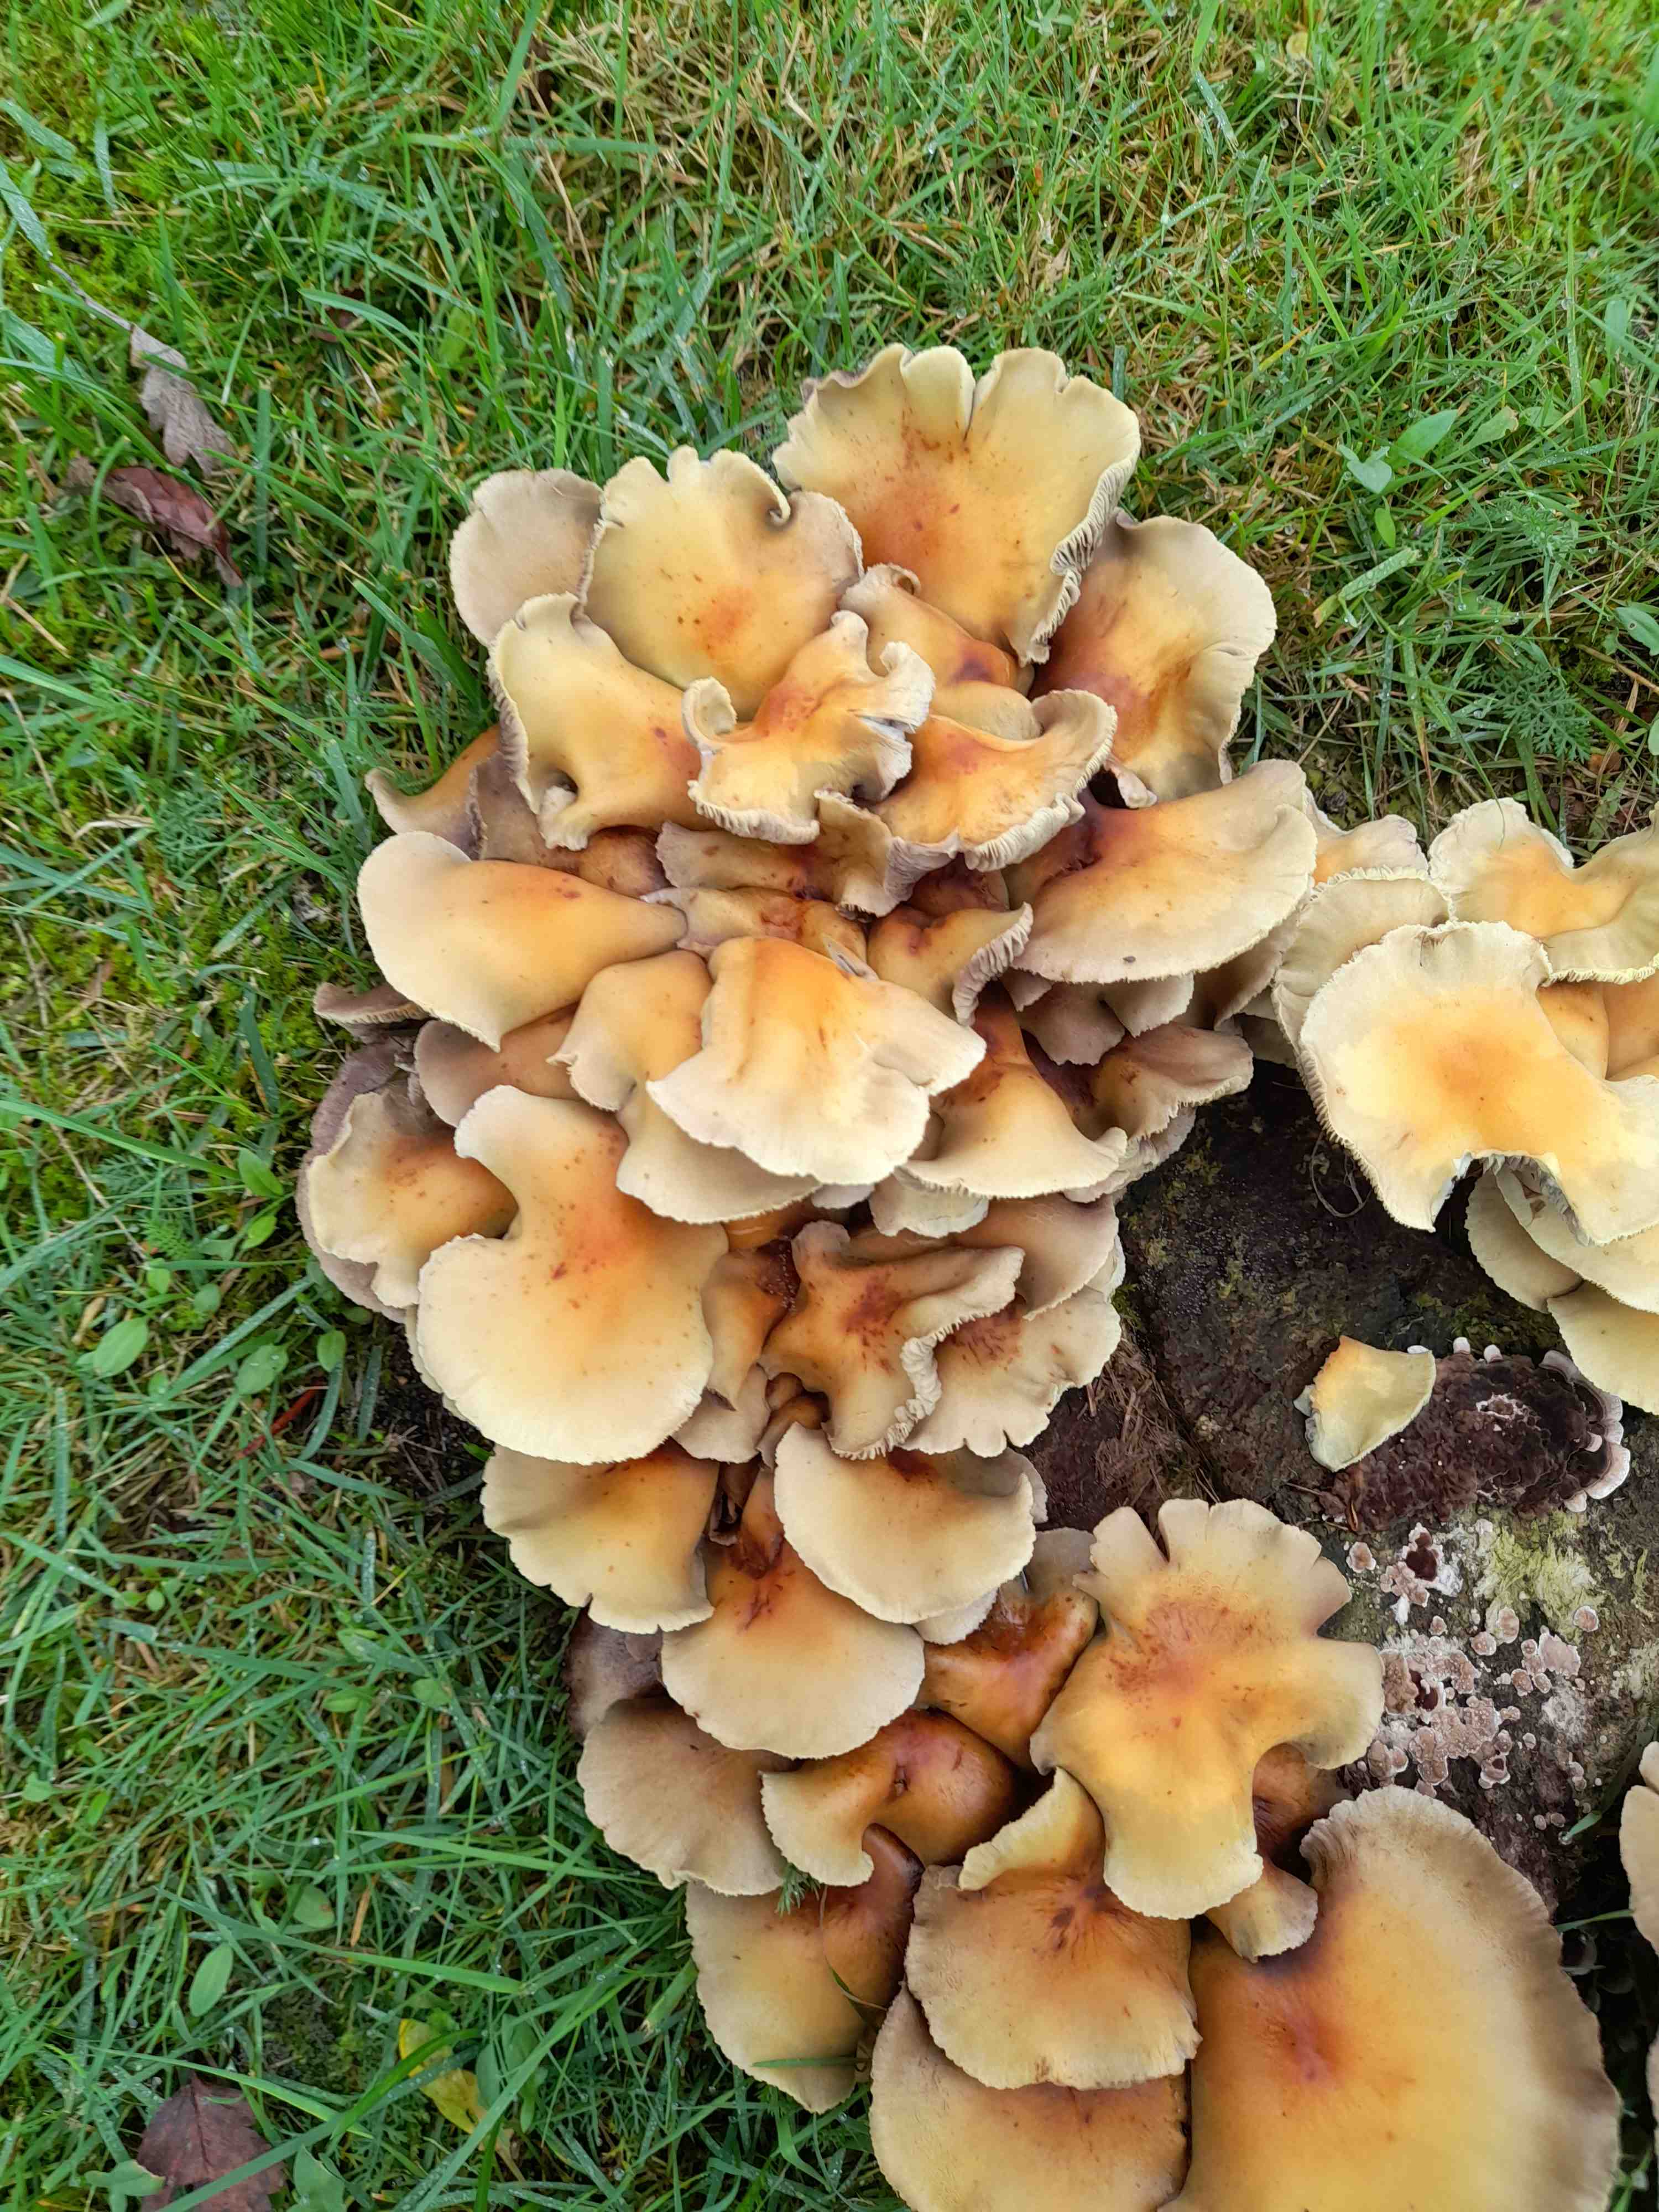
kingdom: Fungi
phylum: Basidiomycota
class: Agaricomycetes
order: Agaricales
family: Strophariaceae
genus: Hypholoma
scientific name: Hypholoma fasciculare
